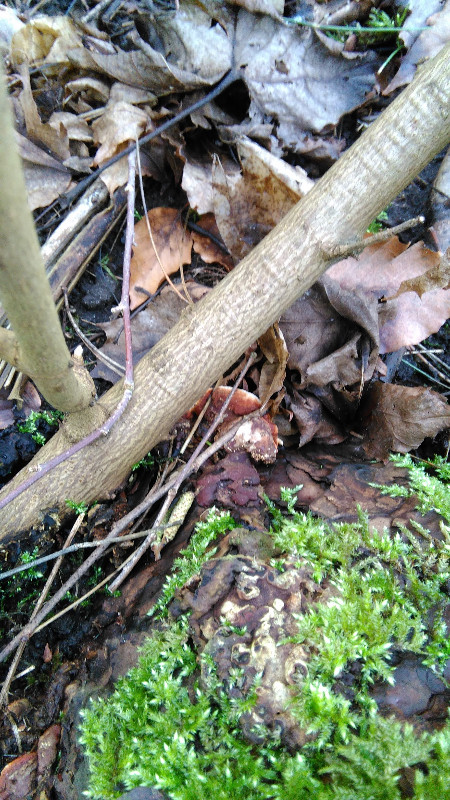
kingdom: Fungi
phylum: Basidiomycota
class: Agaricomycetes
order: Russulales
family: Bondarzewiaceae
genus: Heterobasidion
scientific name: Heterobasidion annosum
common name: almindelig rodfordærver
